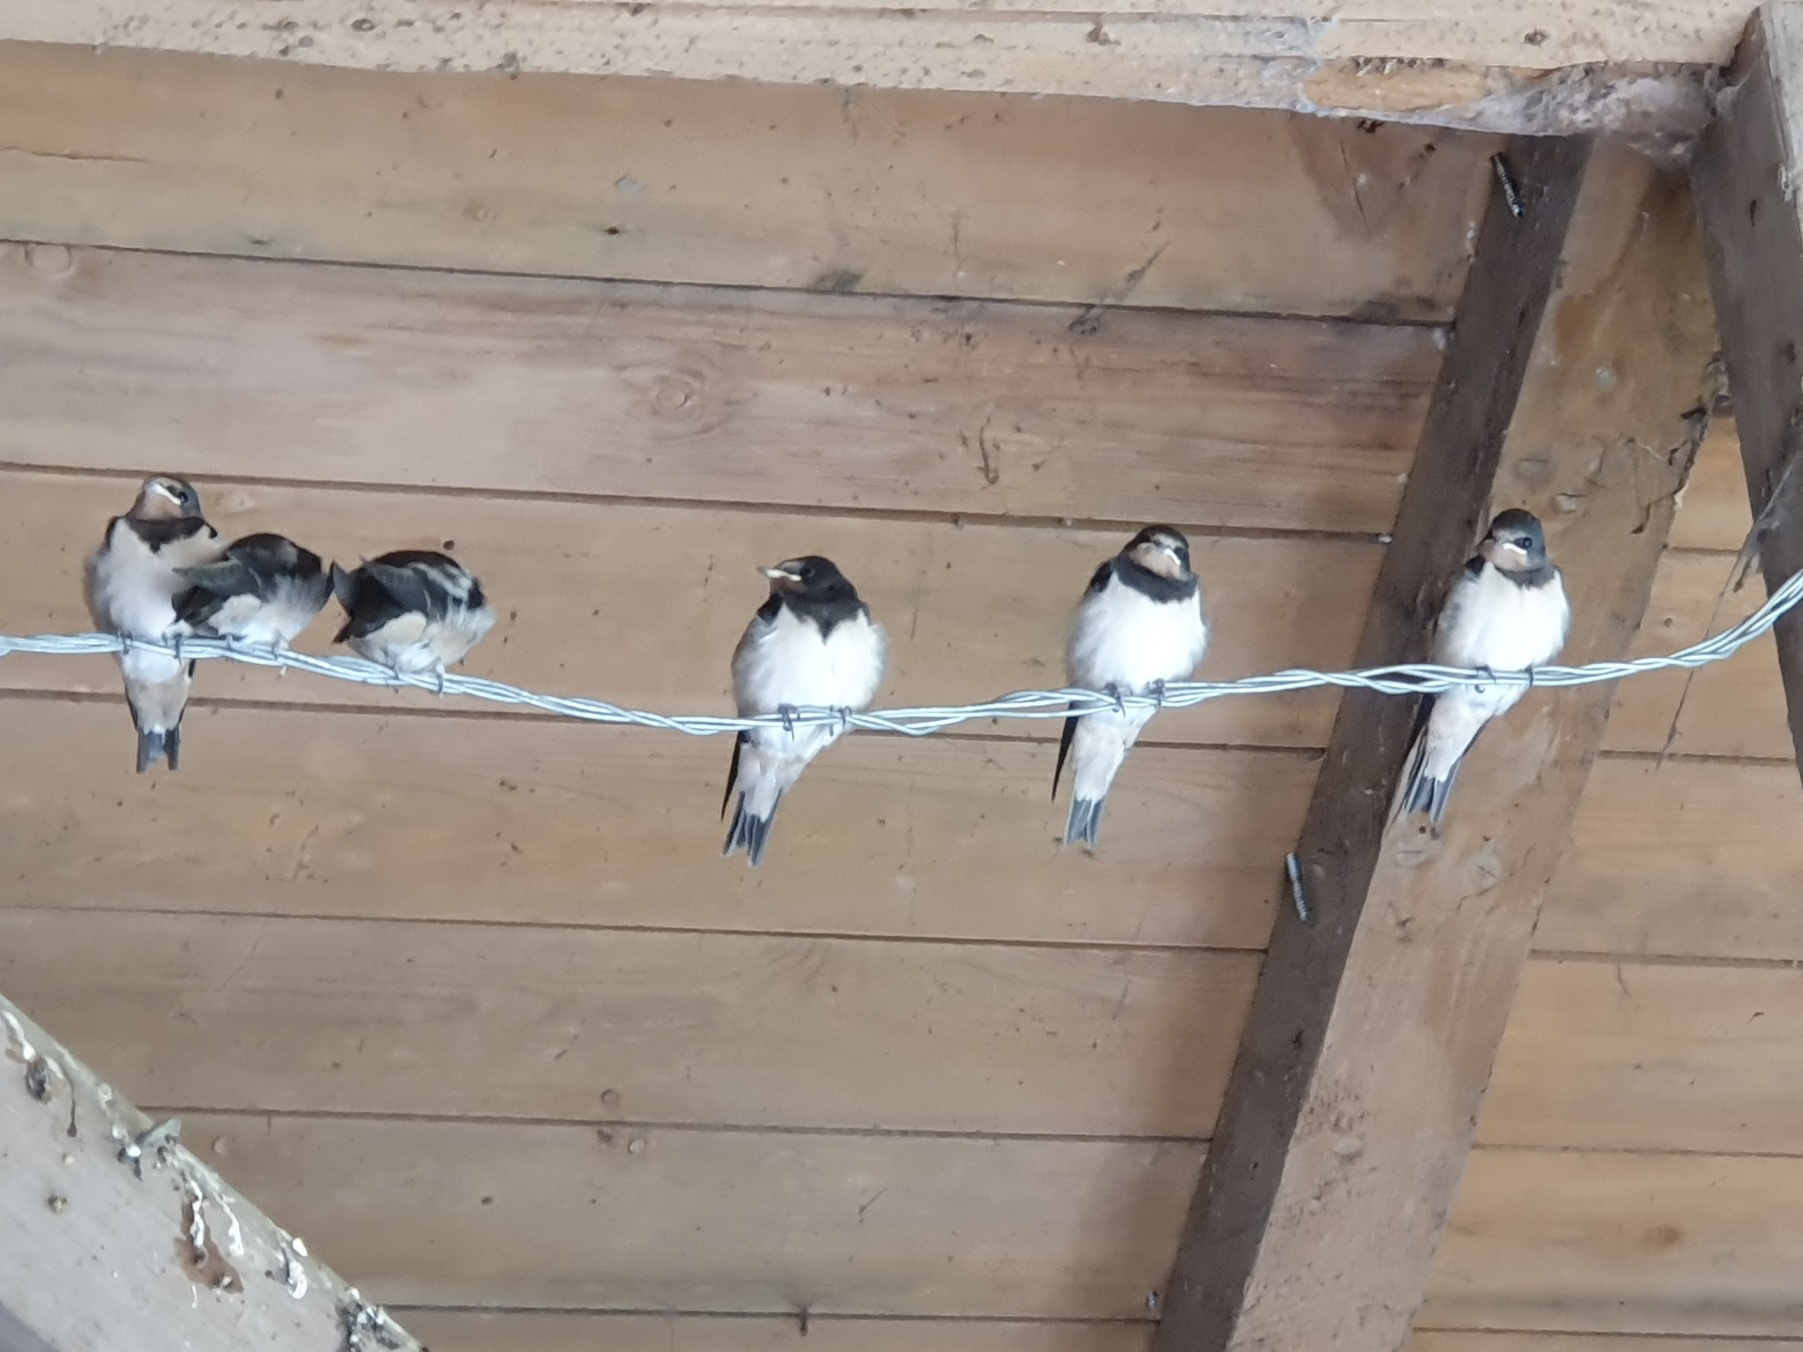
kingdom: Animalia
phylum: Chordata
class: Aves
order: Passeriformes
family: Hirundinidae
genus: Hirundo
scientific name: Hirundo rustica
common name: Landsvale
